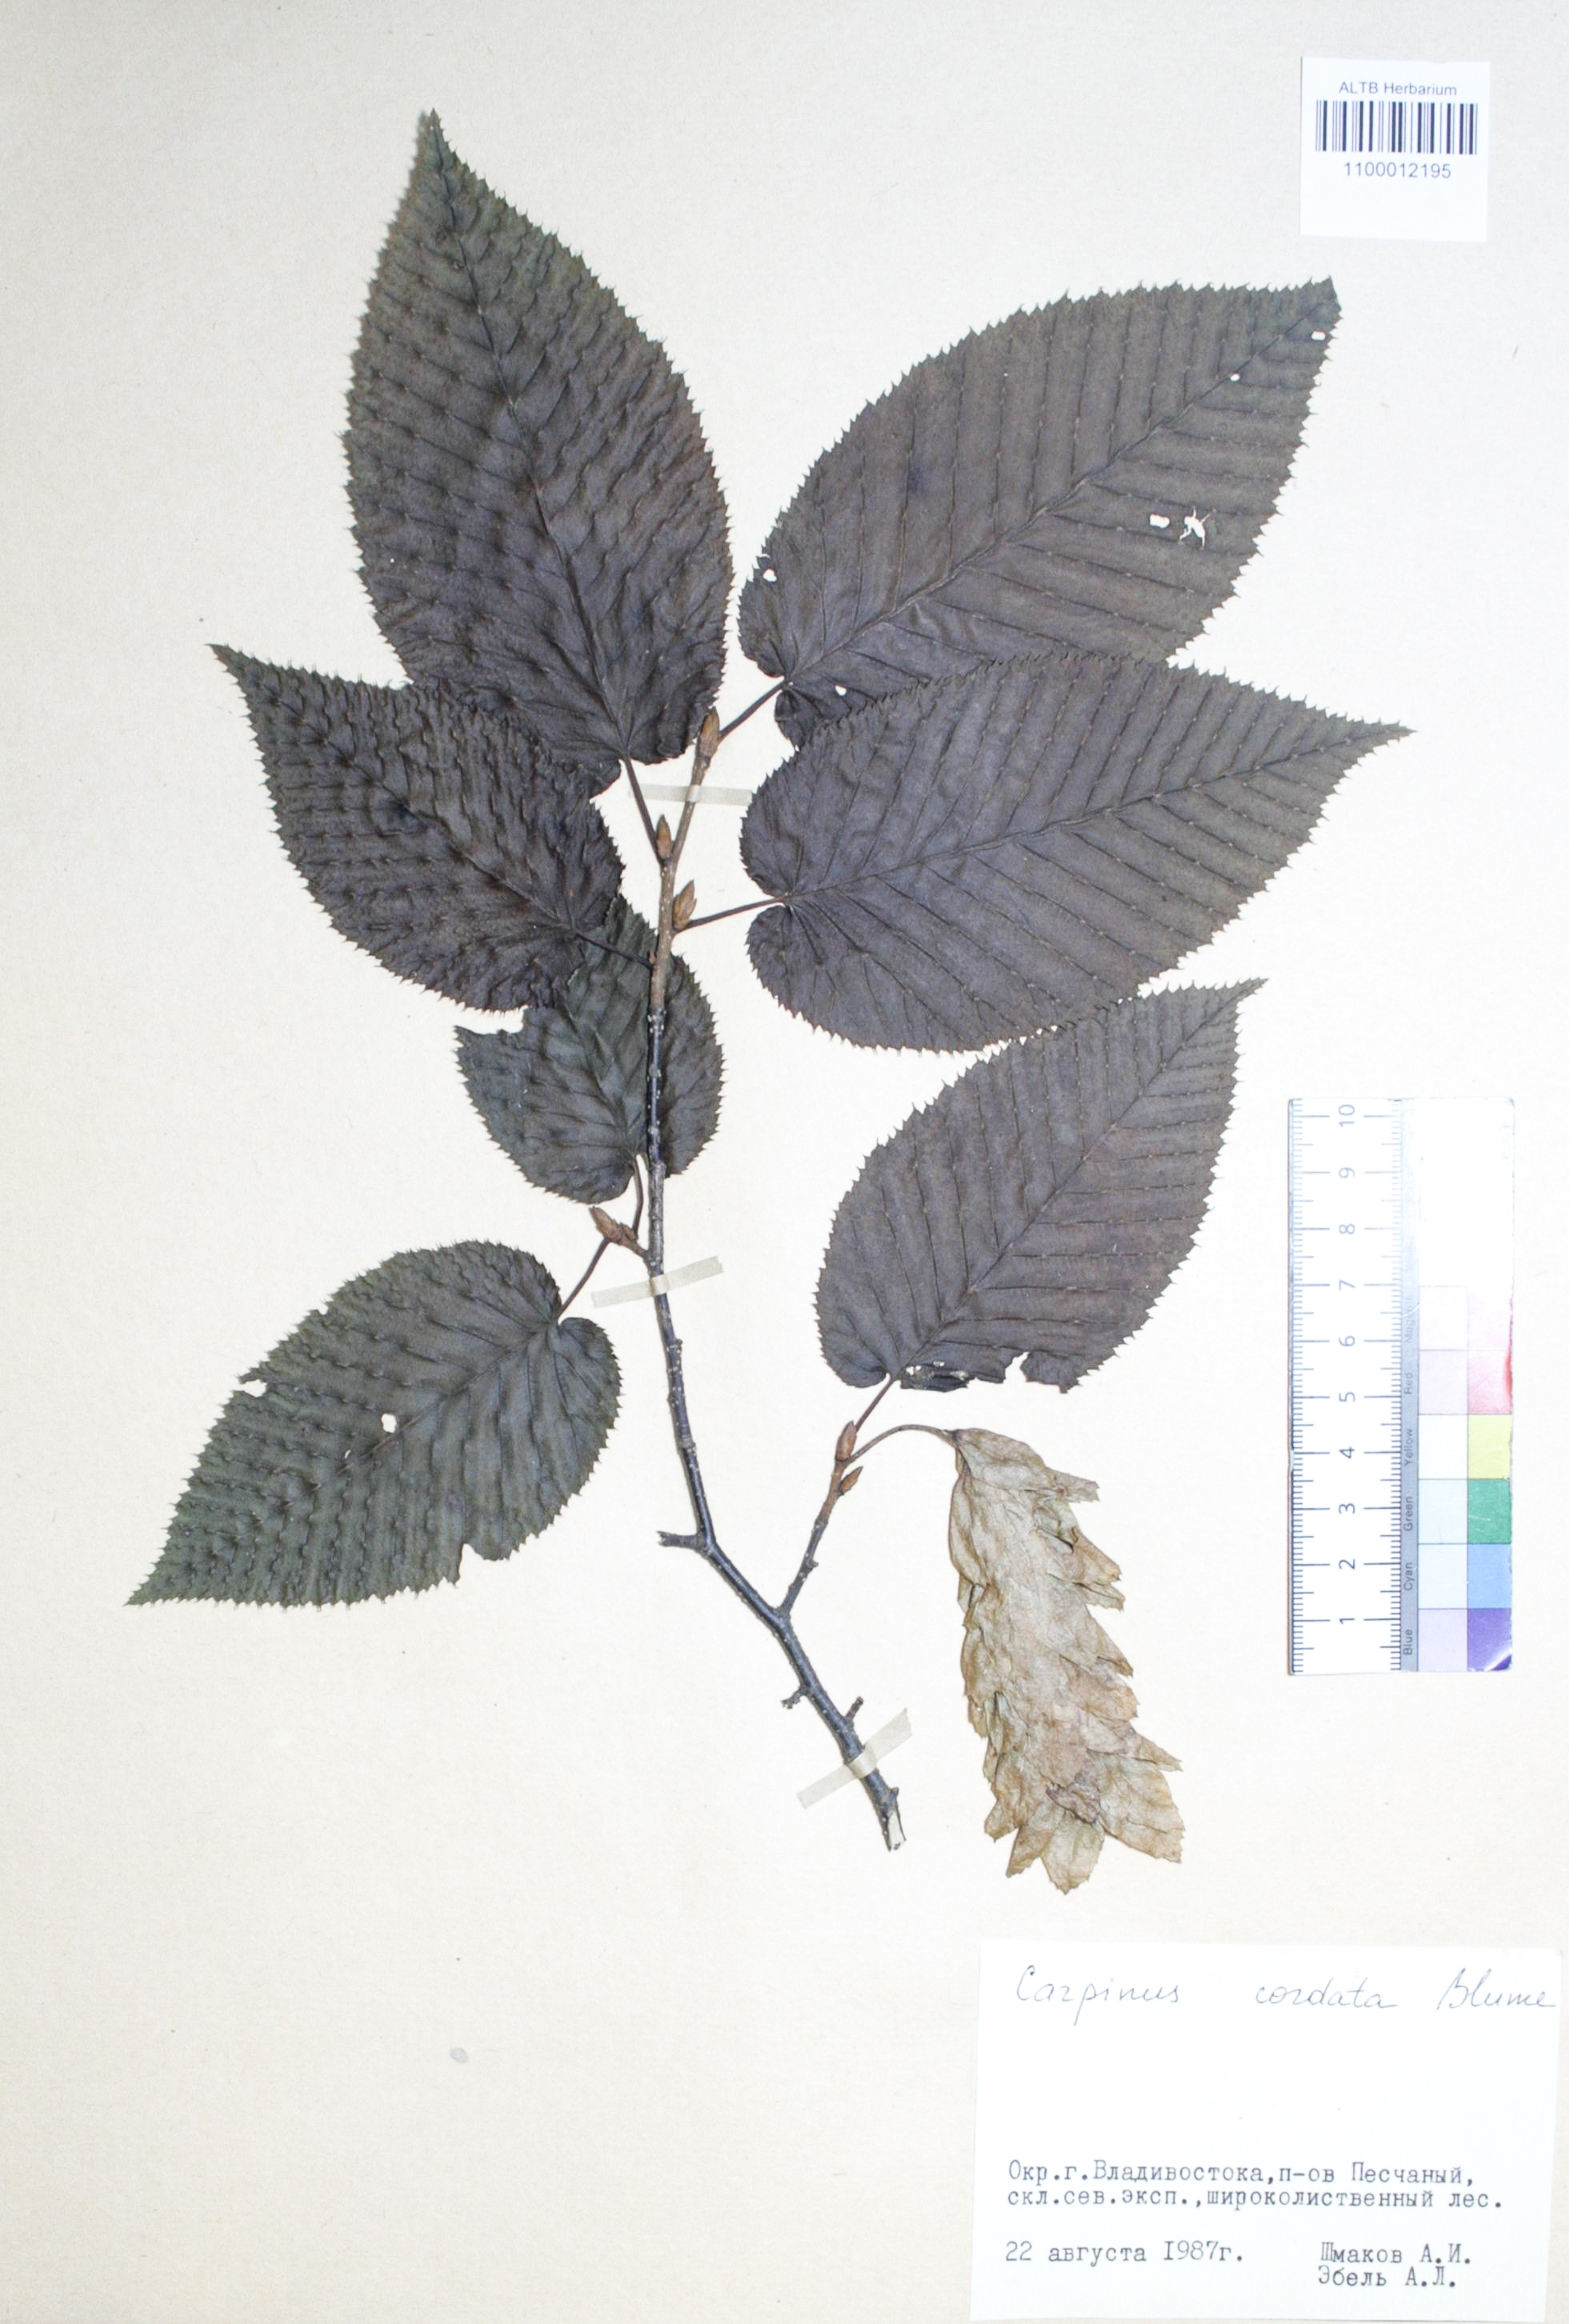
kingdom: Plantae
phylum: Tracheophyta
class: Magnoliopsida
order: Fagales
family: Betulaceae
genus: Carpinus
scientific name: Carpinus cordata
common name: Sawa hornbeam
